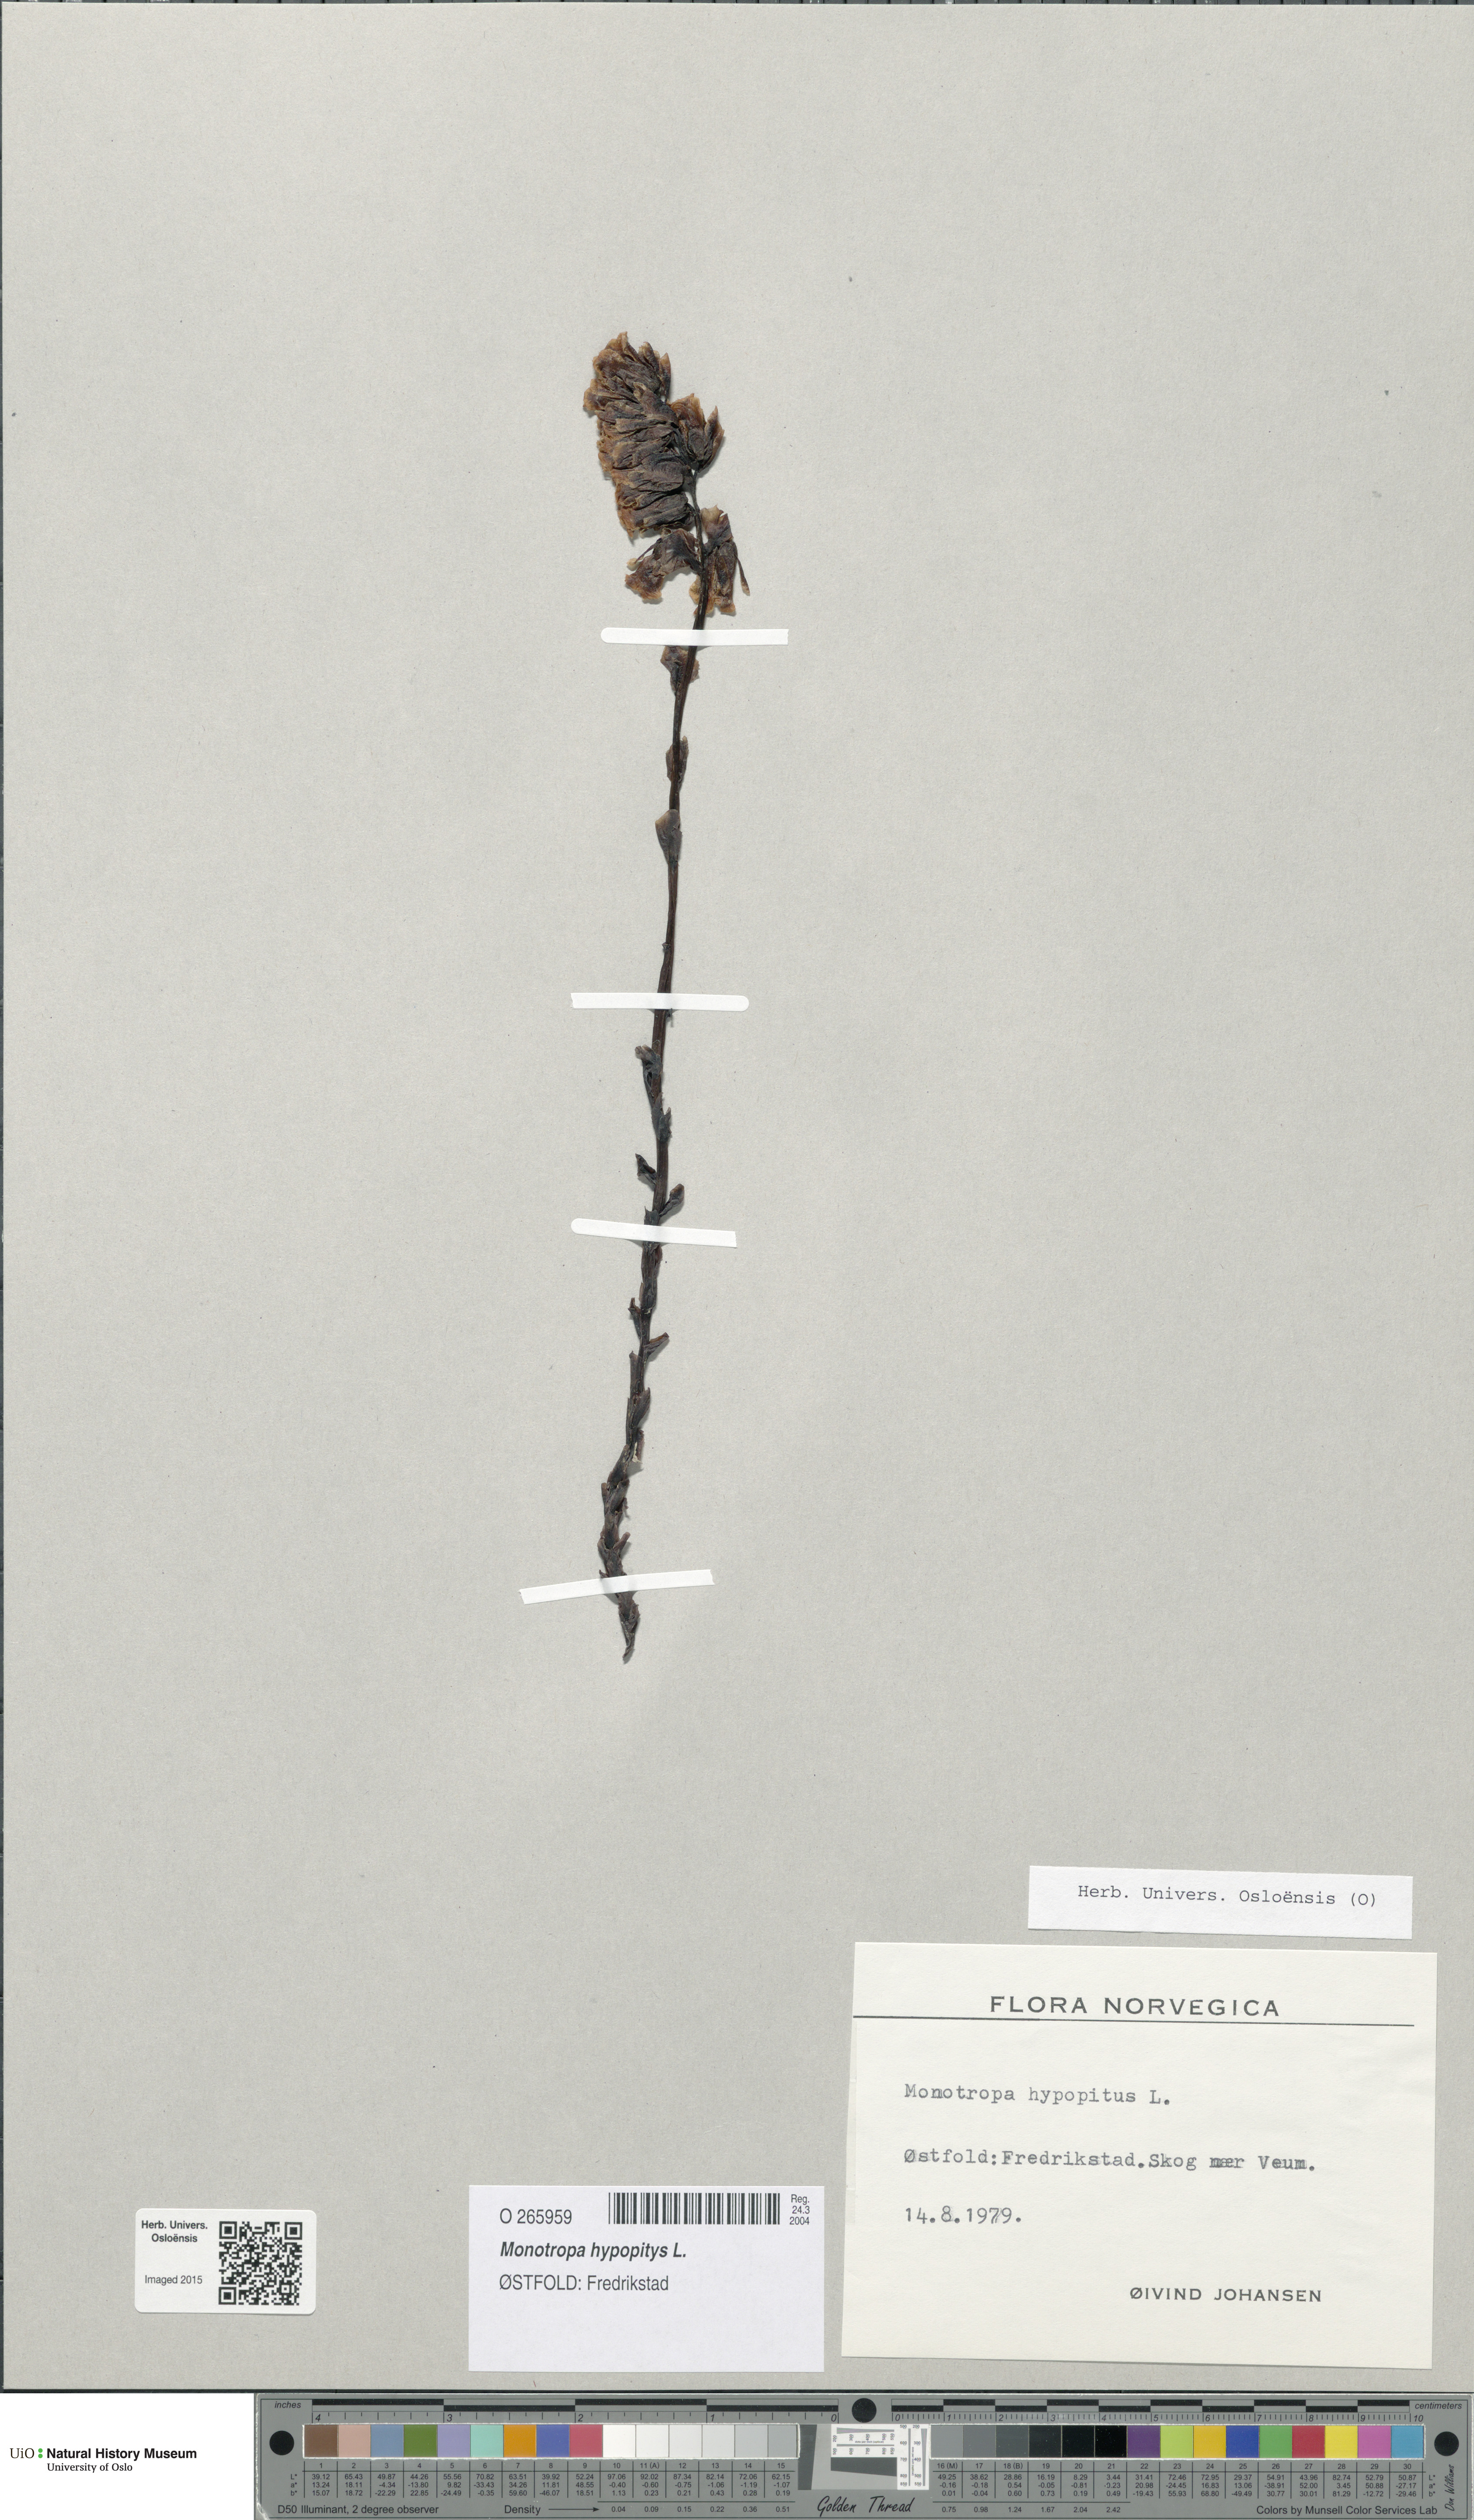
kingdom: Plantae
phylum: Tracheophyta
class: Magnoliopsida
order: Ericales
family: Ericaceae
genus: Hypopitys
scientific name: Hypopitys monotropa
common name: Yellow bird's-nest
